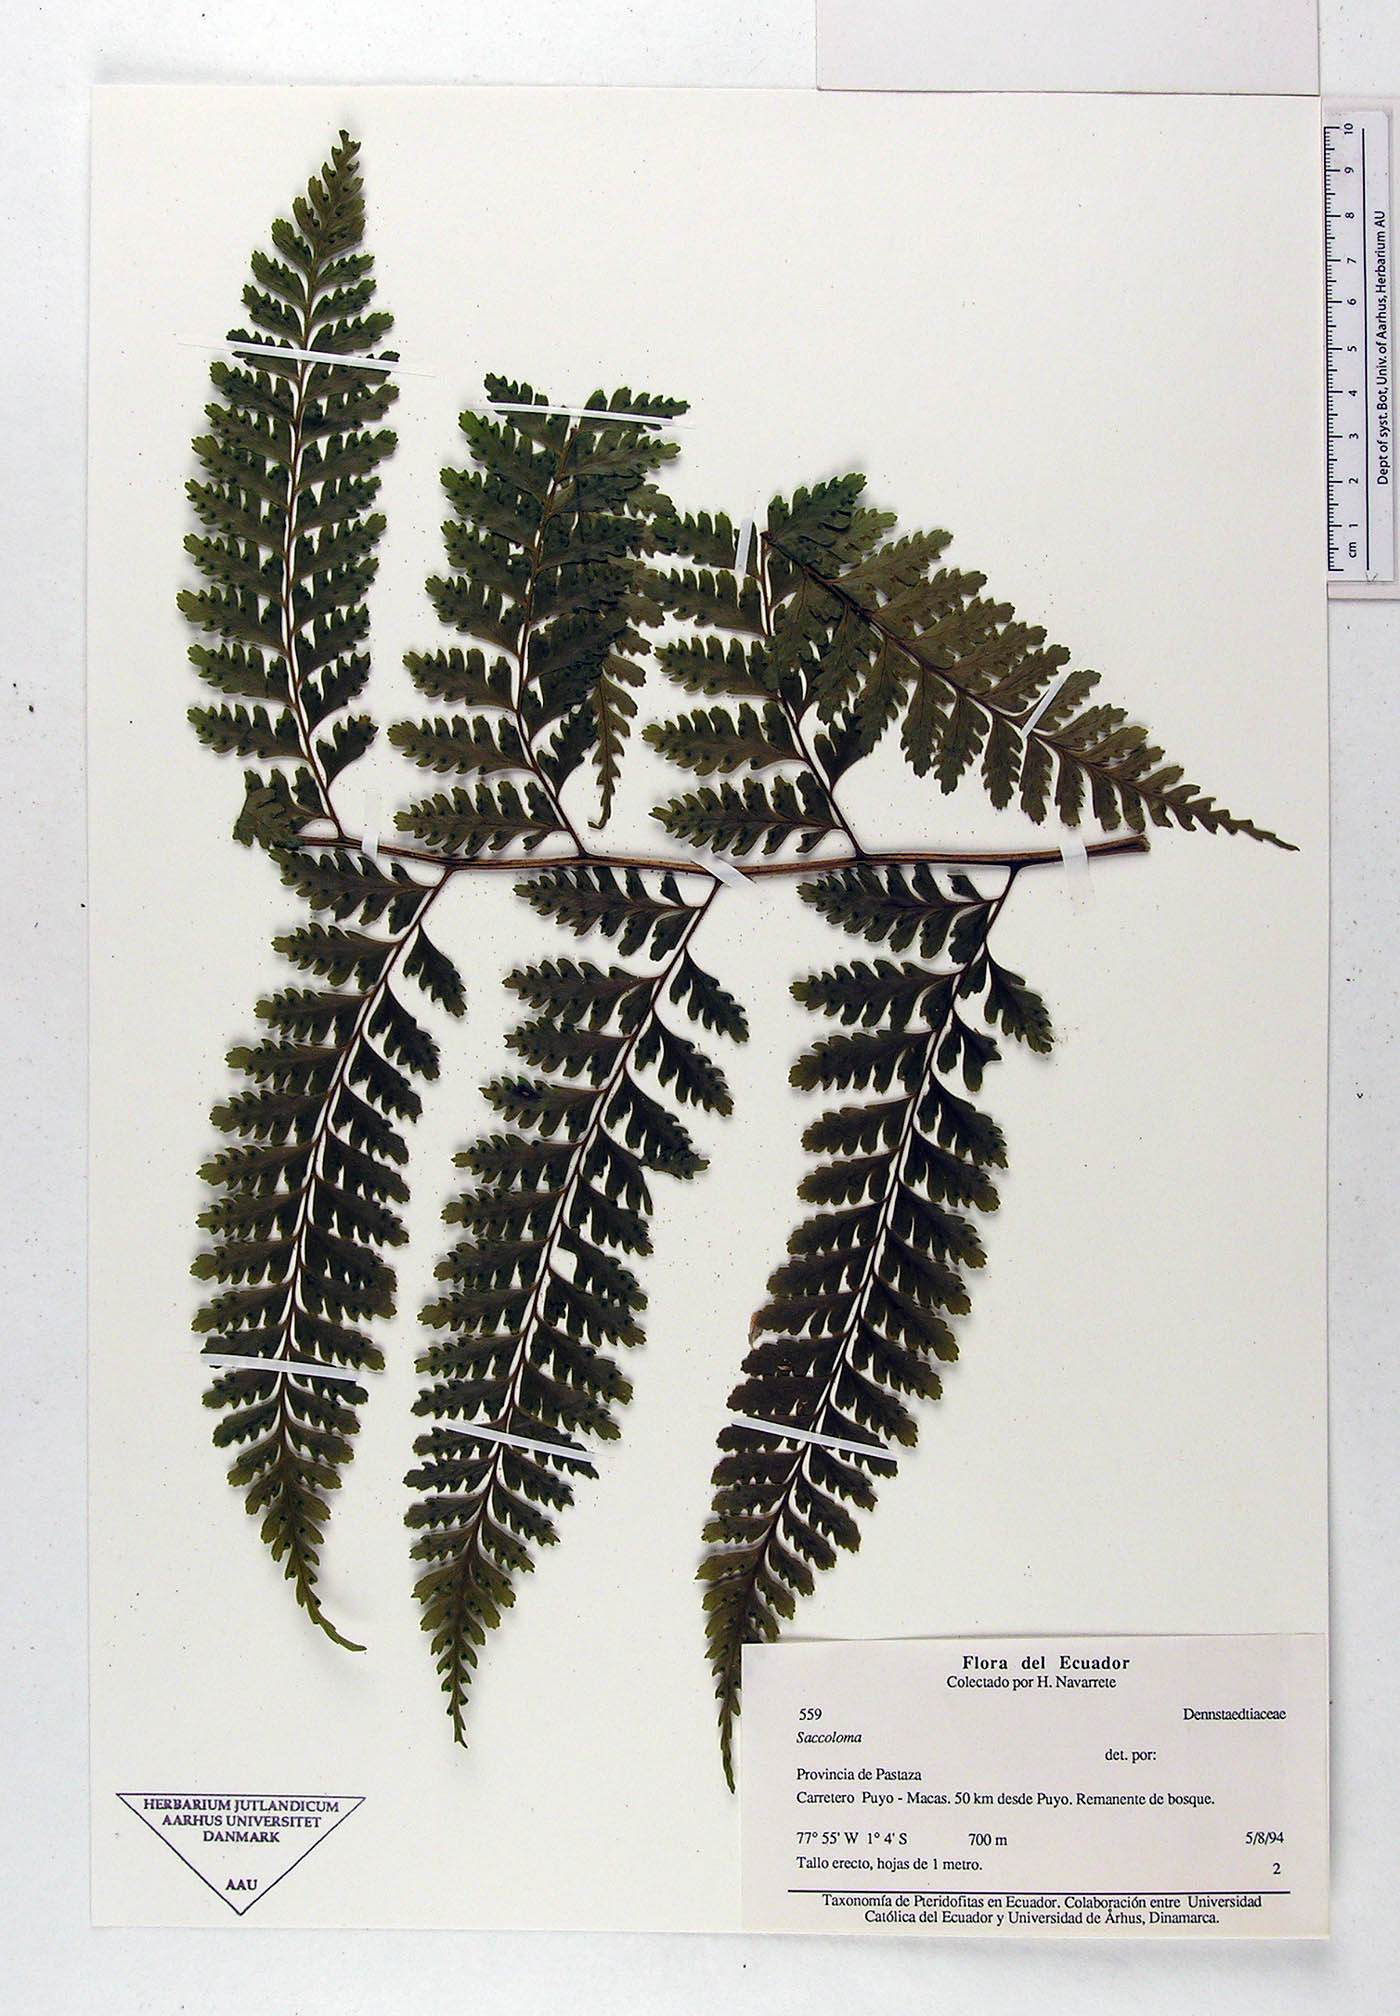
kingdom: Plantae
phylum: Tracheophyta
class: Polypodiopsida
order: Polypodiales
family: Saccolomataceae
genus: Saccoloma
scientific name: Saccoloma inaequale
